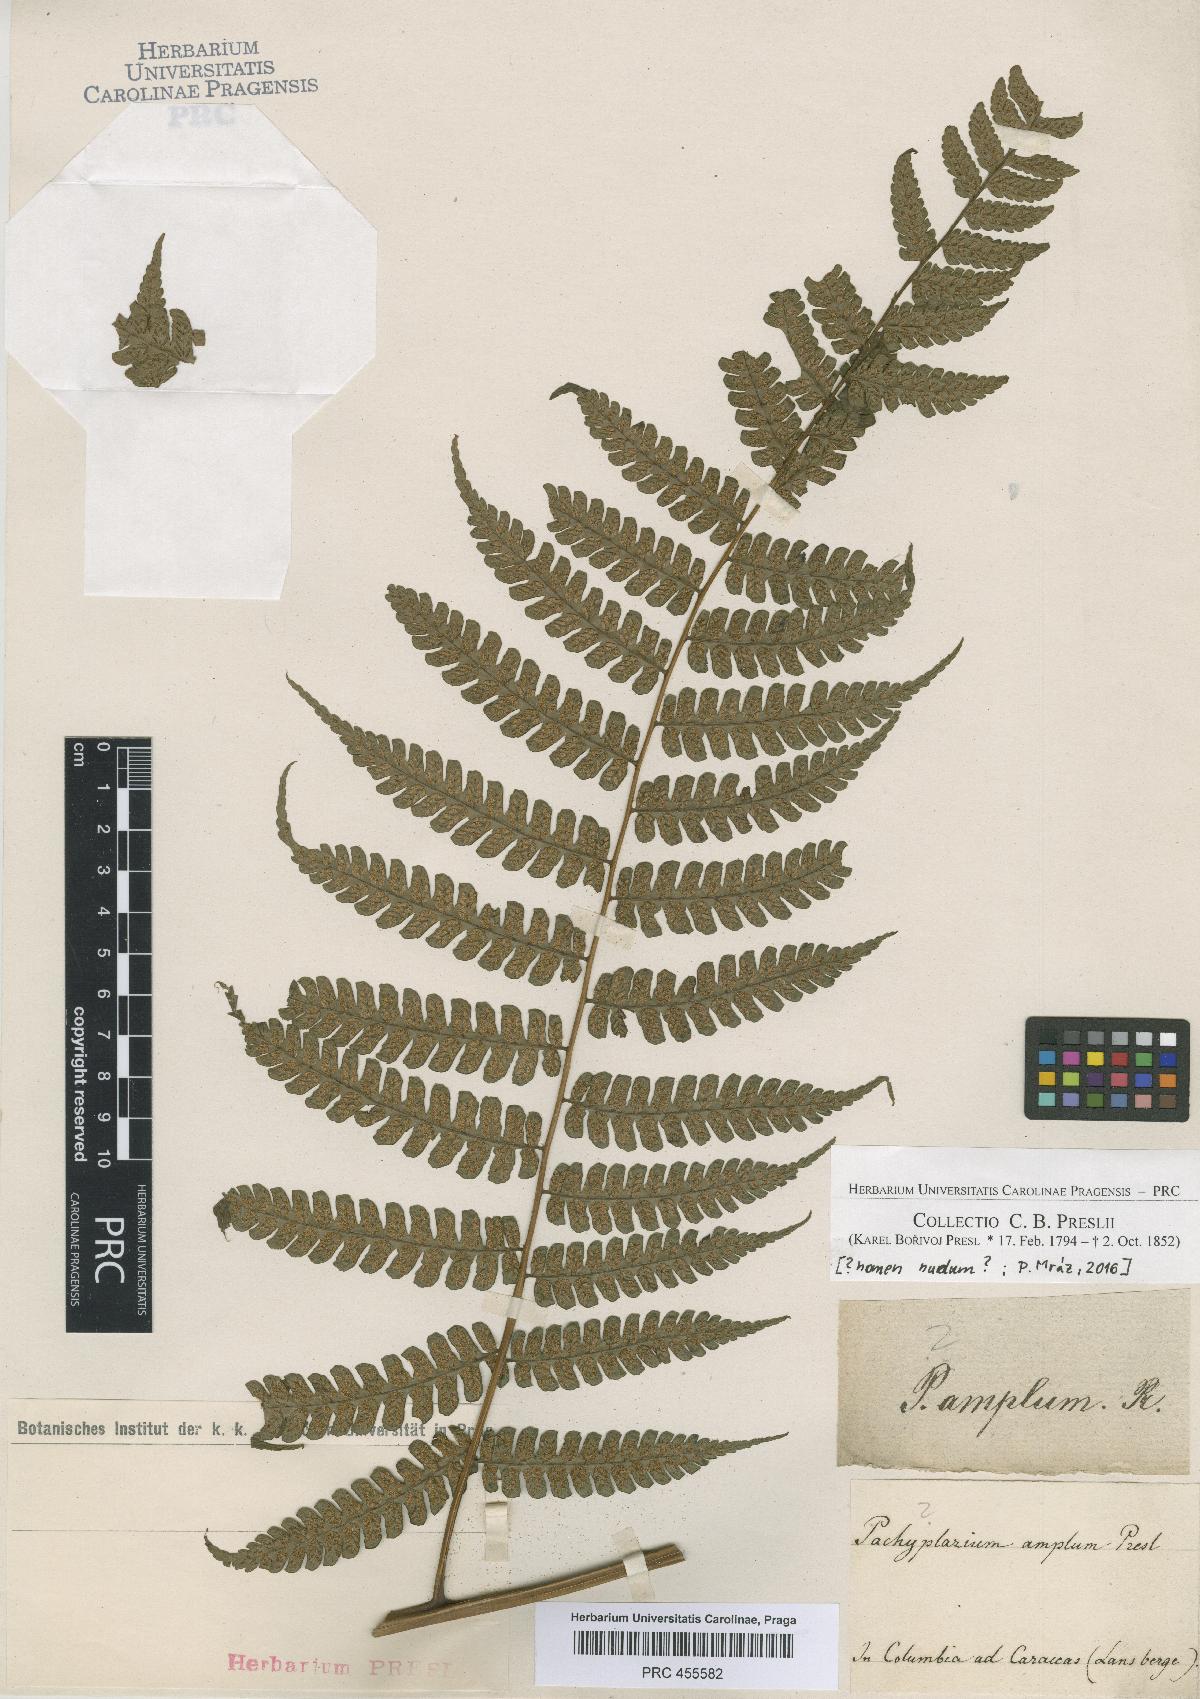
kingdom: Plantae
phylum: Tracheophyta
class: Polypodiopsida
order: Polypodiales
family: Polypodiaceae
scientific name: Polypodiaceae
